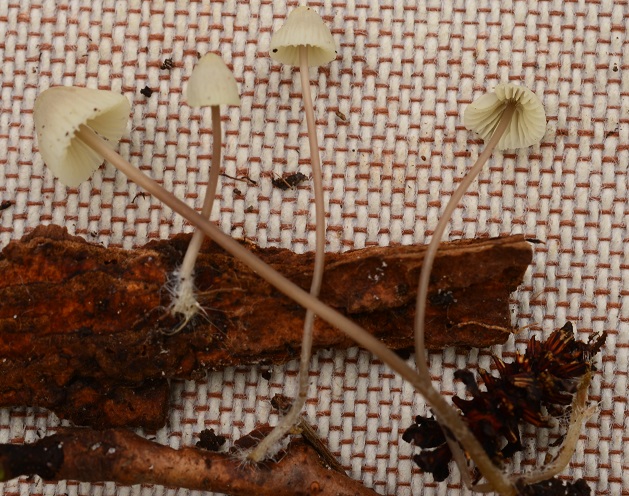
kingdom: Fungi
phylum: Basidiomycota
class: Agaricomycetes
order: Agaricales
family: Mycenaceae
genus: Mycena
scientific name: Mycena flavescens
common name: grågul huesvamp
